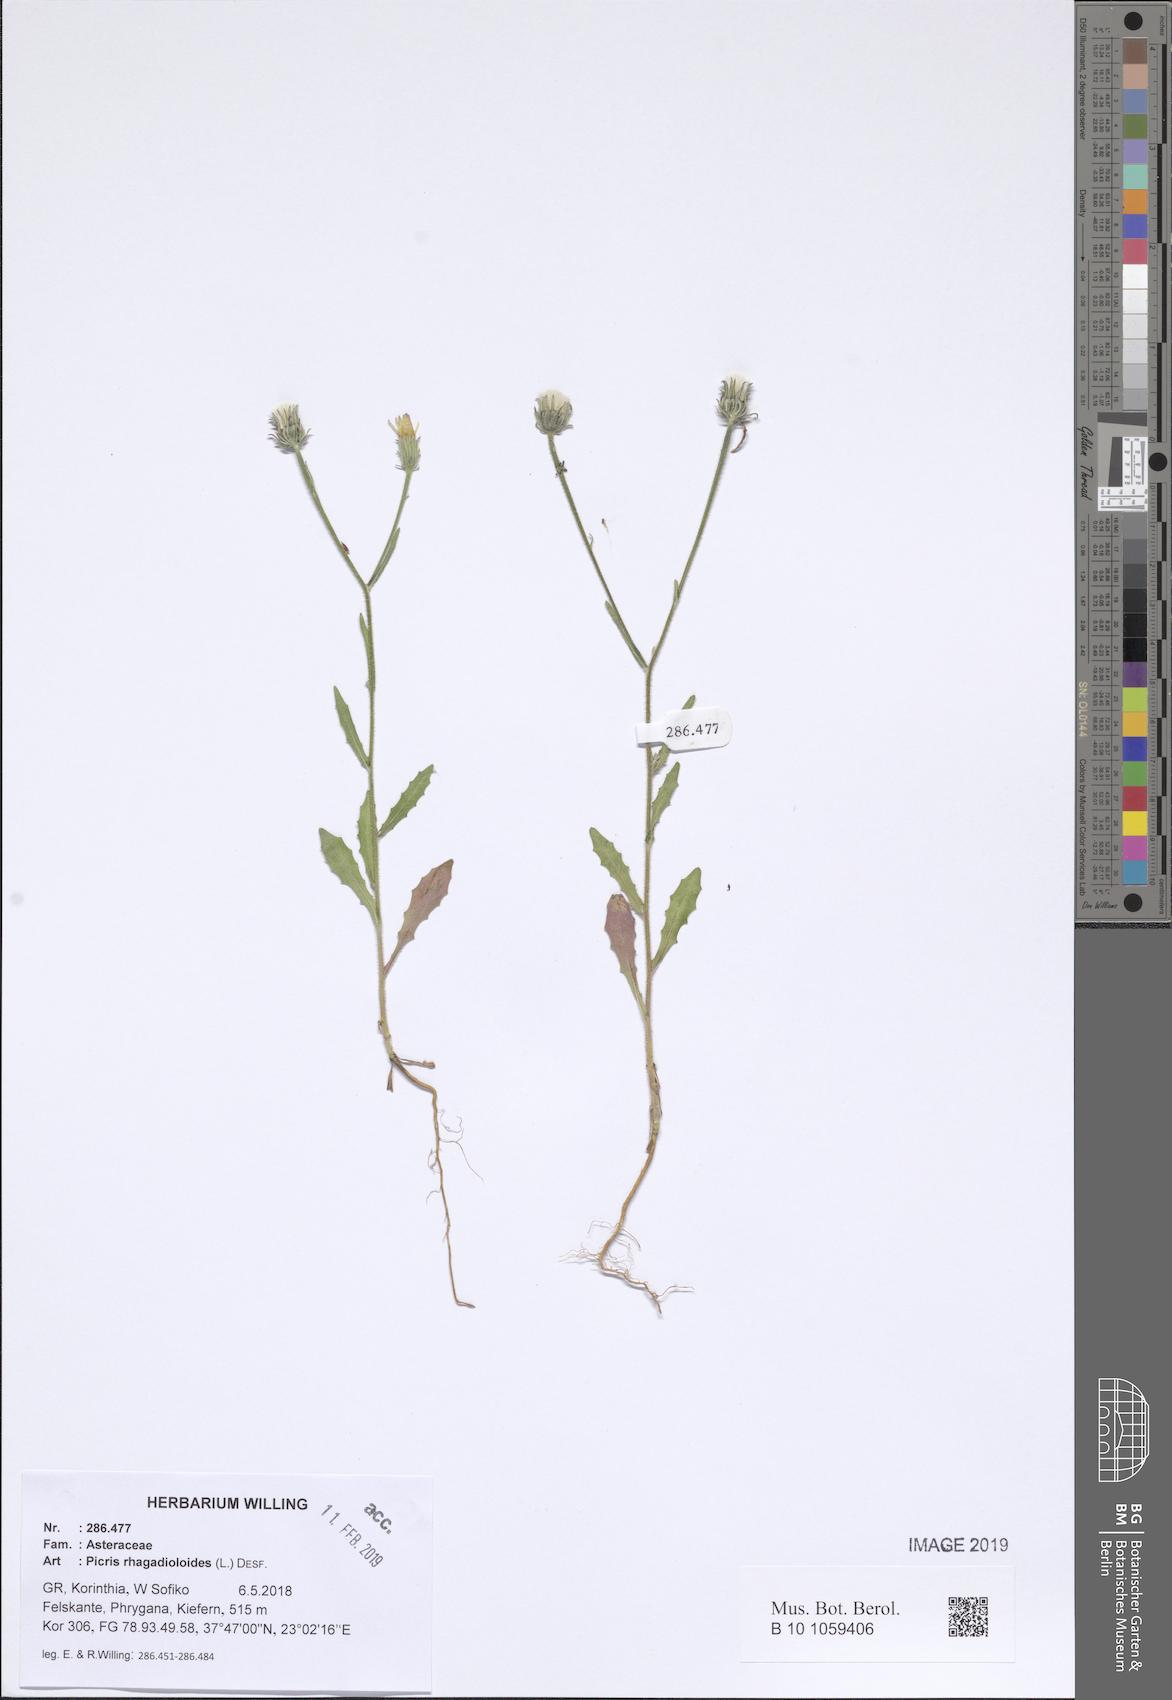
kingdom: Plantae
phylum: Tracheophyta
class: Magnoliopsida
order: Asterales
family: Asteraceae
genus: Picris
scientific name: Picris rhagadioloides
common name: Oxtongue
